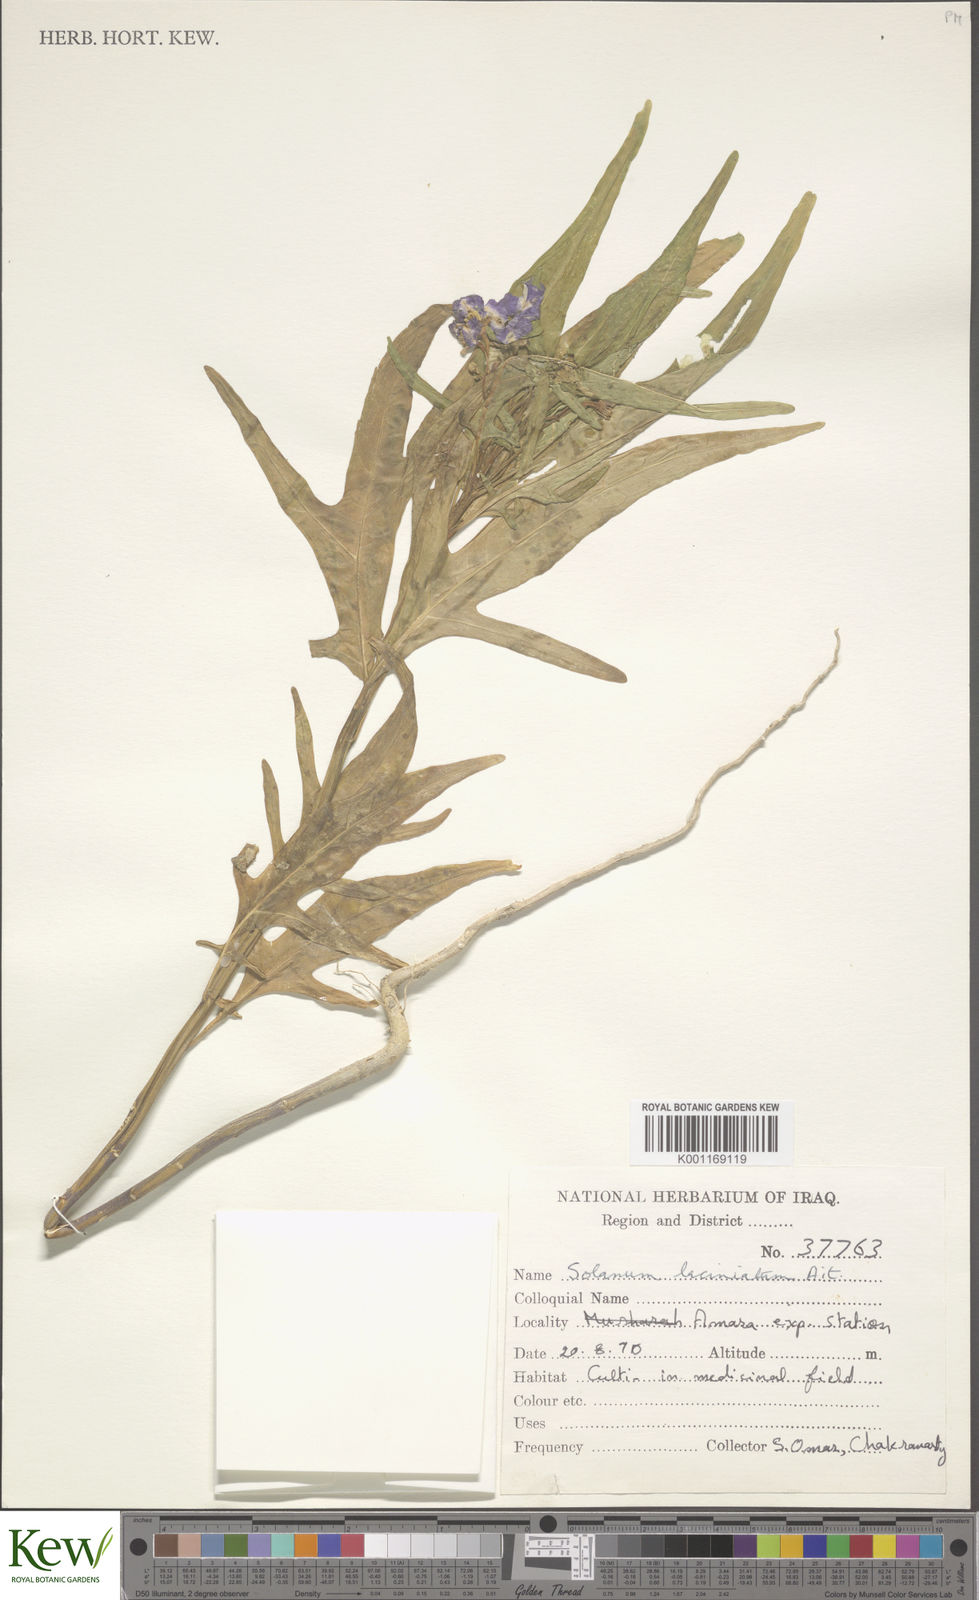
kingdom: Plantae
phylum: Tracheophyta
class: Magnoliopsida
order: Solanales
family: Solanaceae
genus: Solanum
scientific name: Solanum lanceifolium
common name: Lanceleaf nightshade
